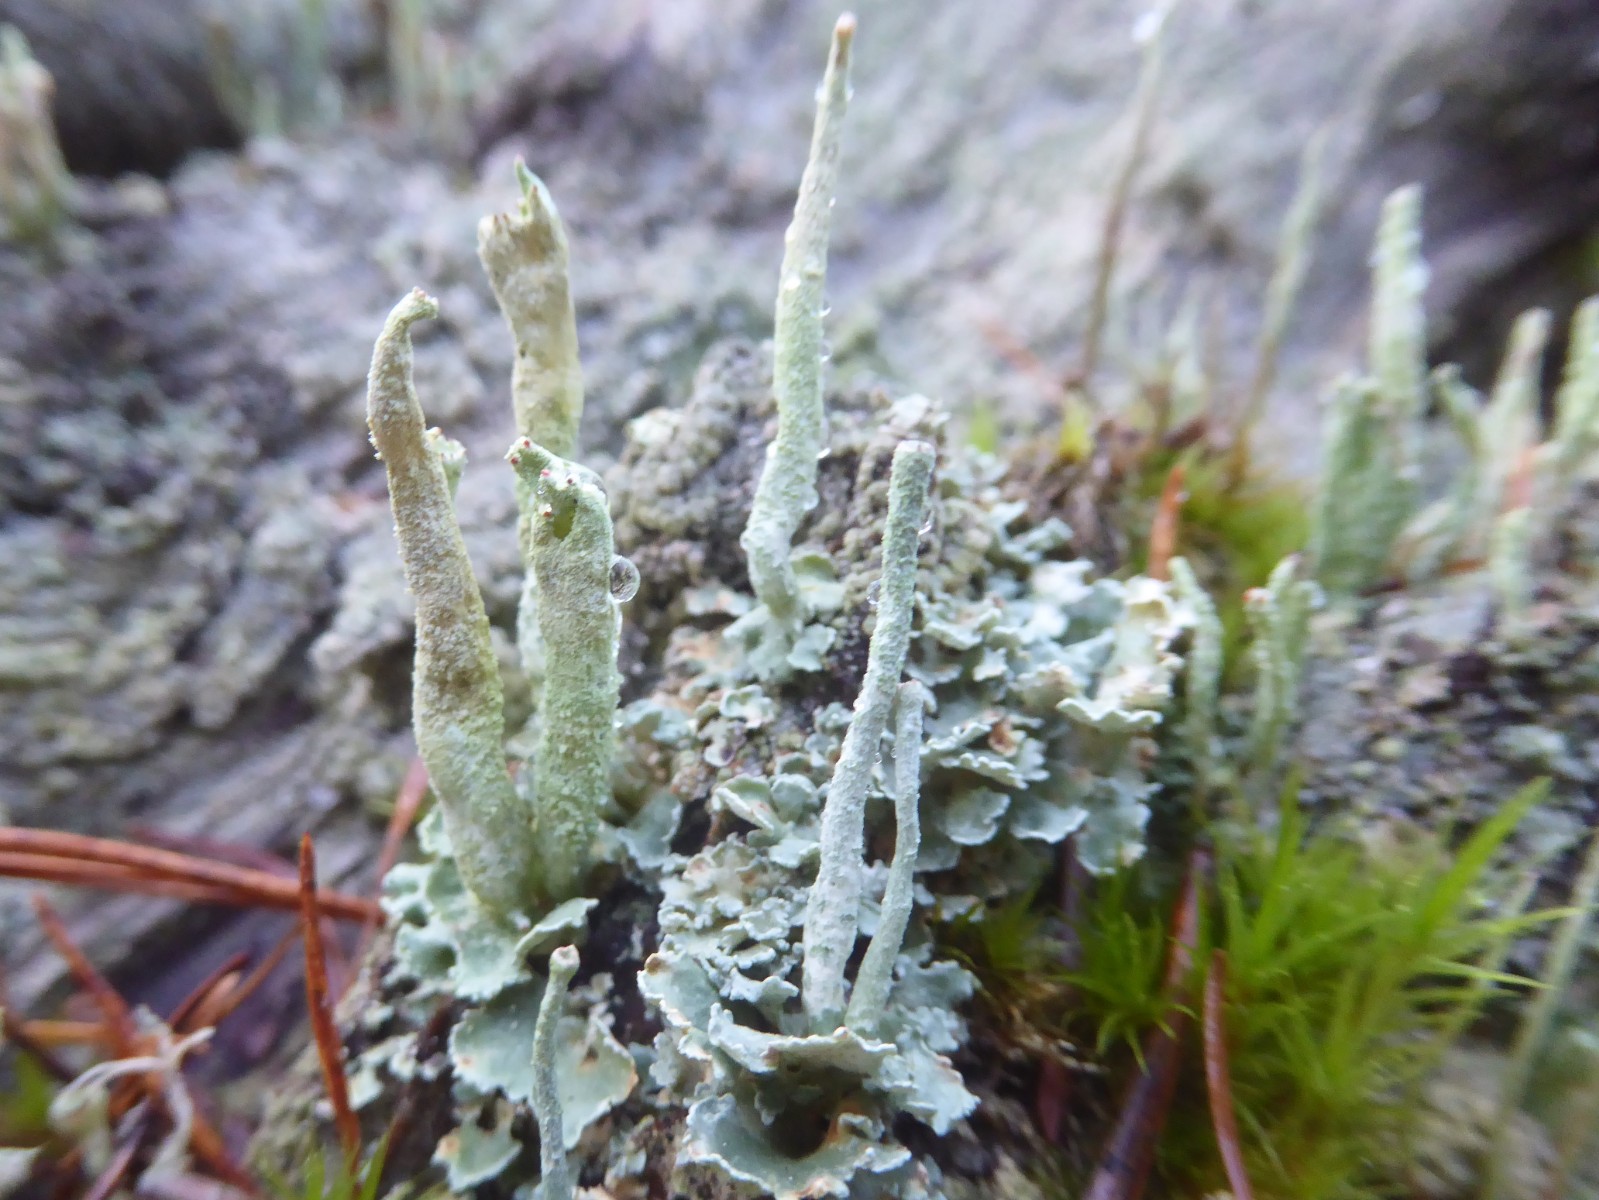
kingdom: Fungi
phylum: Ascomycota
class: Lecanoromycetes
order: Lecanorales
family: Cladoniaceae
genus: Cladonia
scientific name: Cladonia sulphurina
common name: opblæst bægerlav
